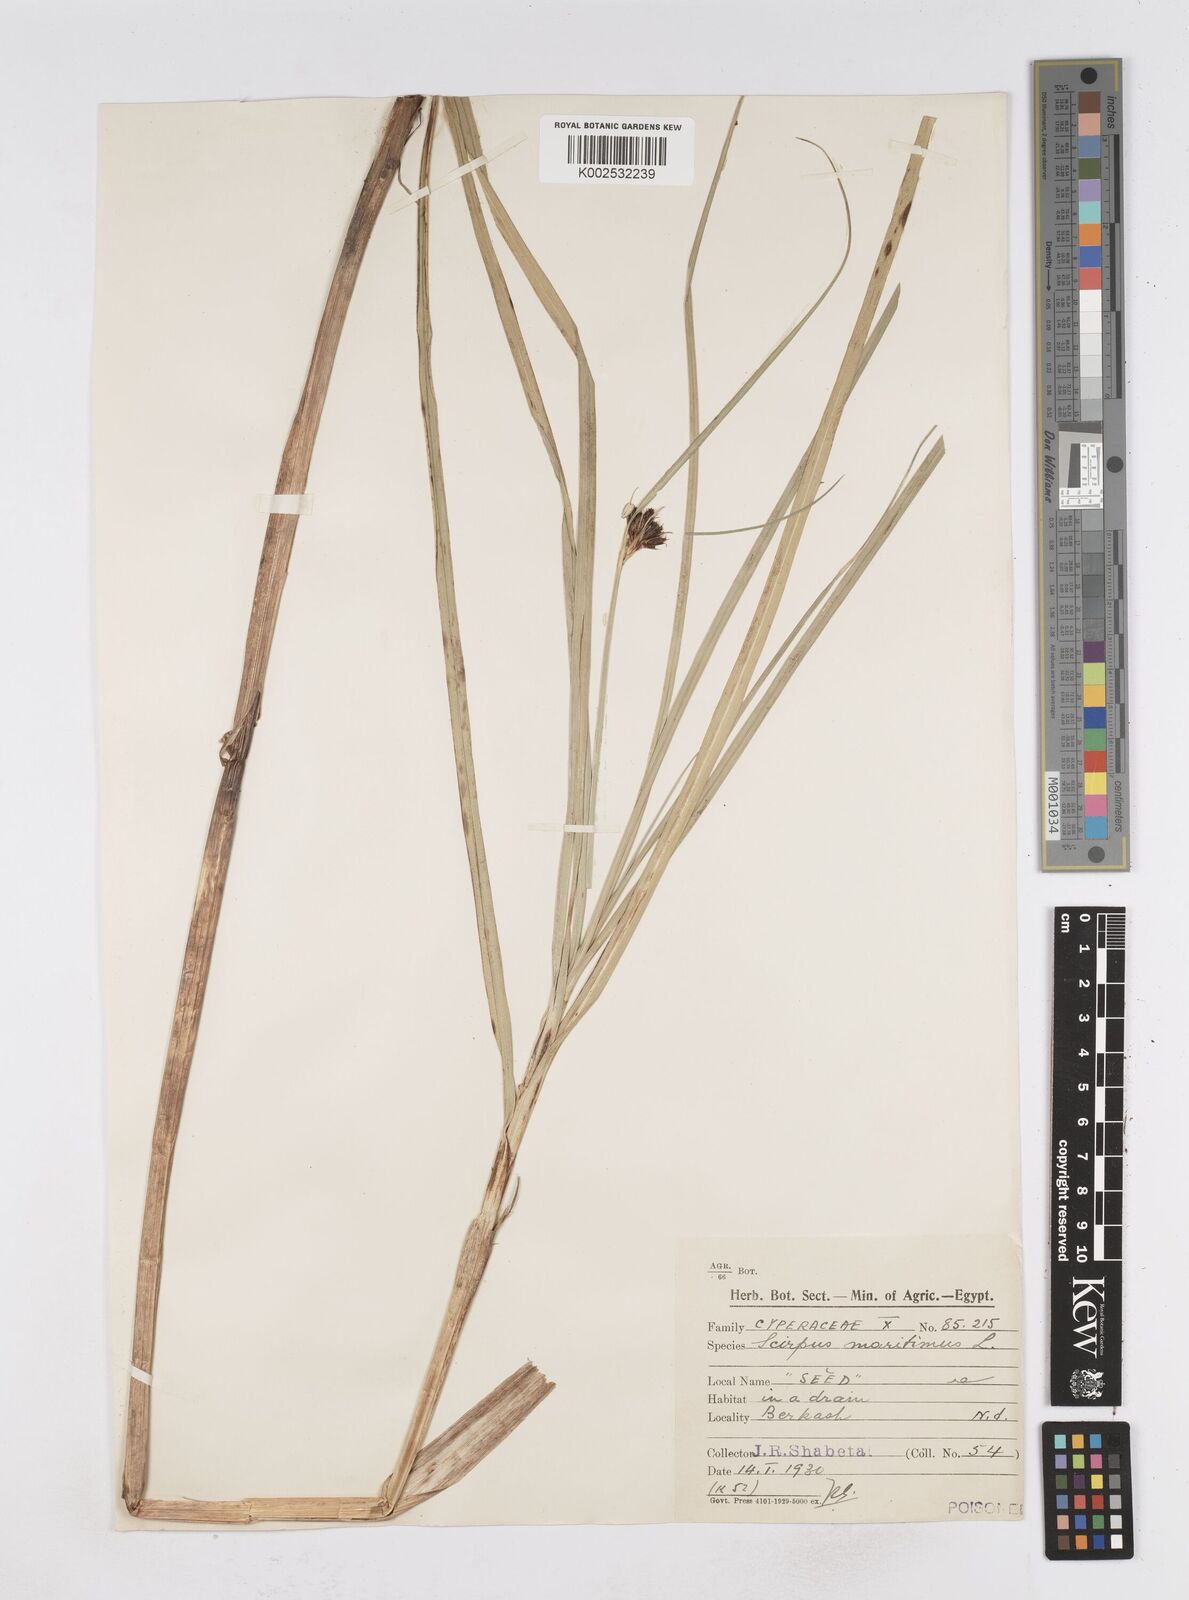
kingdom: Plantae
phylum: Tracheophyta
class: Liliopsida
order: Poales
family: Cyperaceae
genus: Bolboschoenus
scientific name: Bolboschoenus maritimus
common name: Sea club-rush
